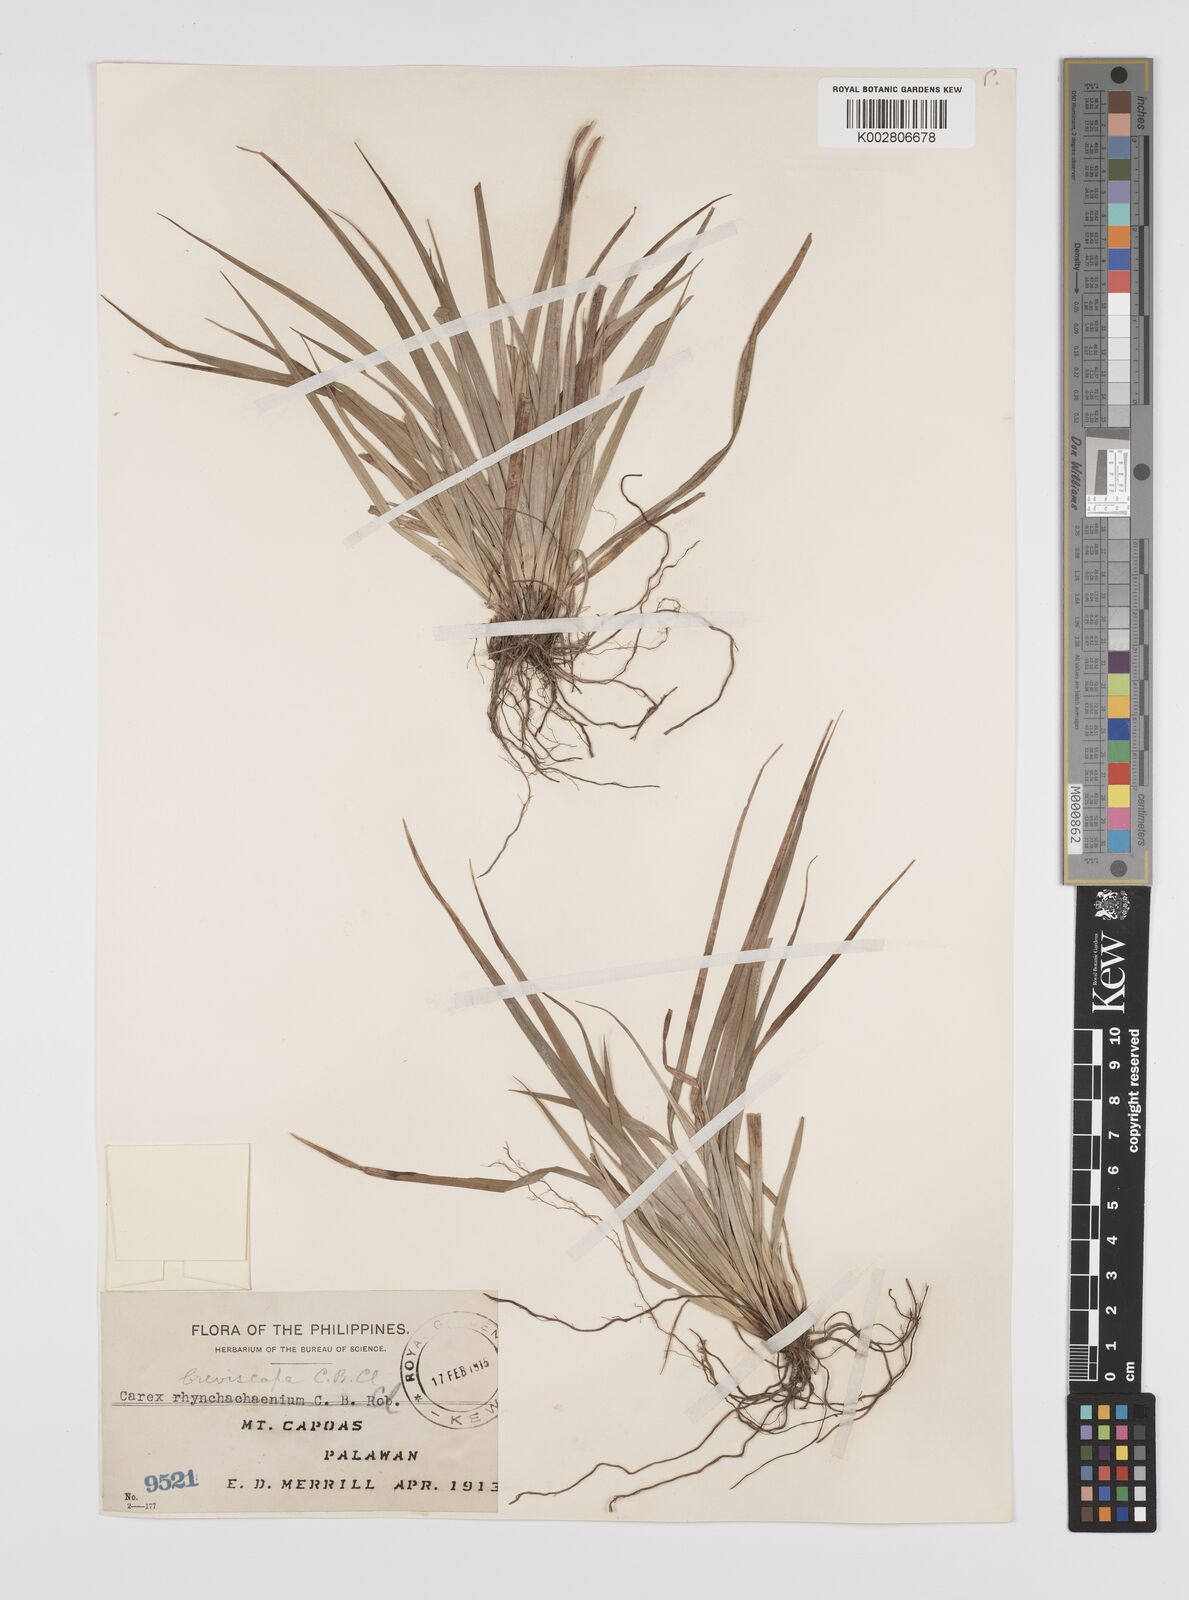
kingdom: Plantae
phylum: Tracheophyta
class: Liliopsida
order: Poales
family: Cyperaceae
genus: Carex
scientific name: Carex breviscapa
